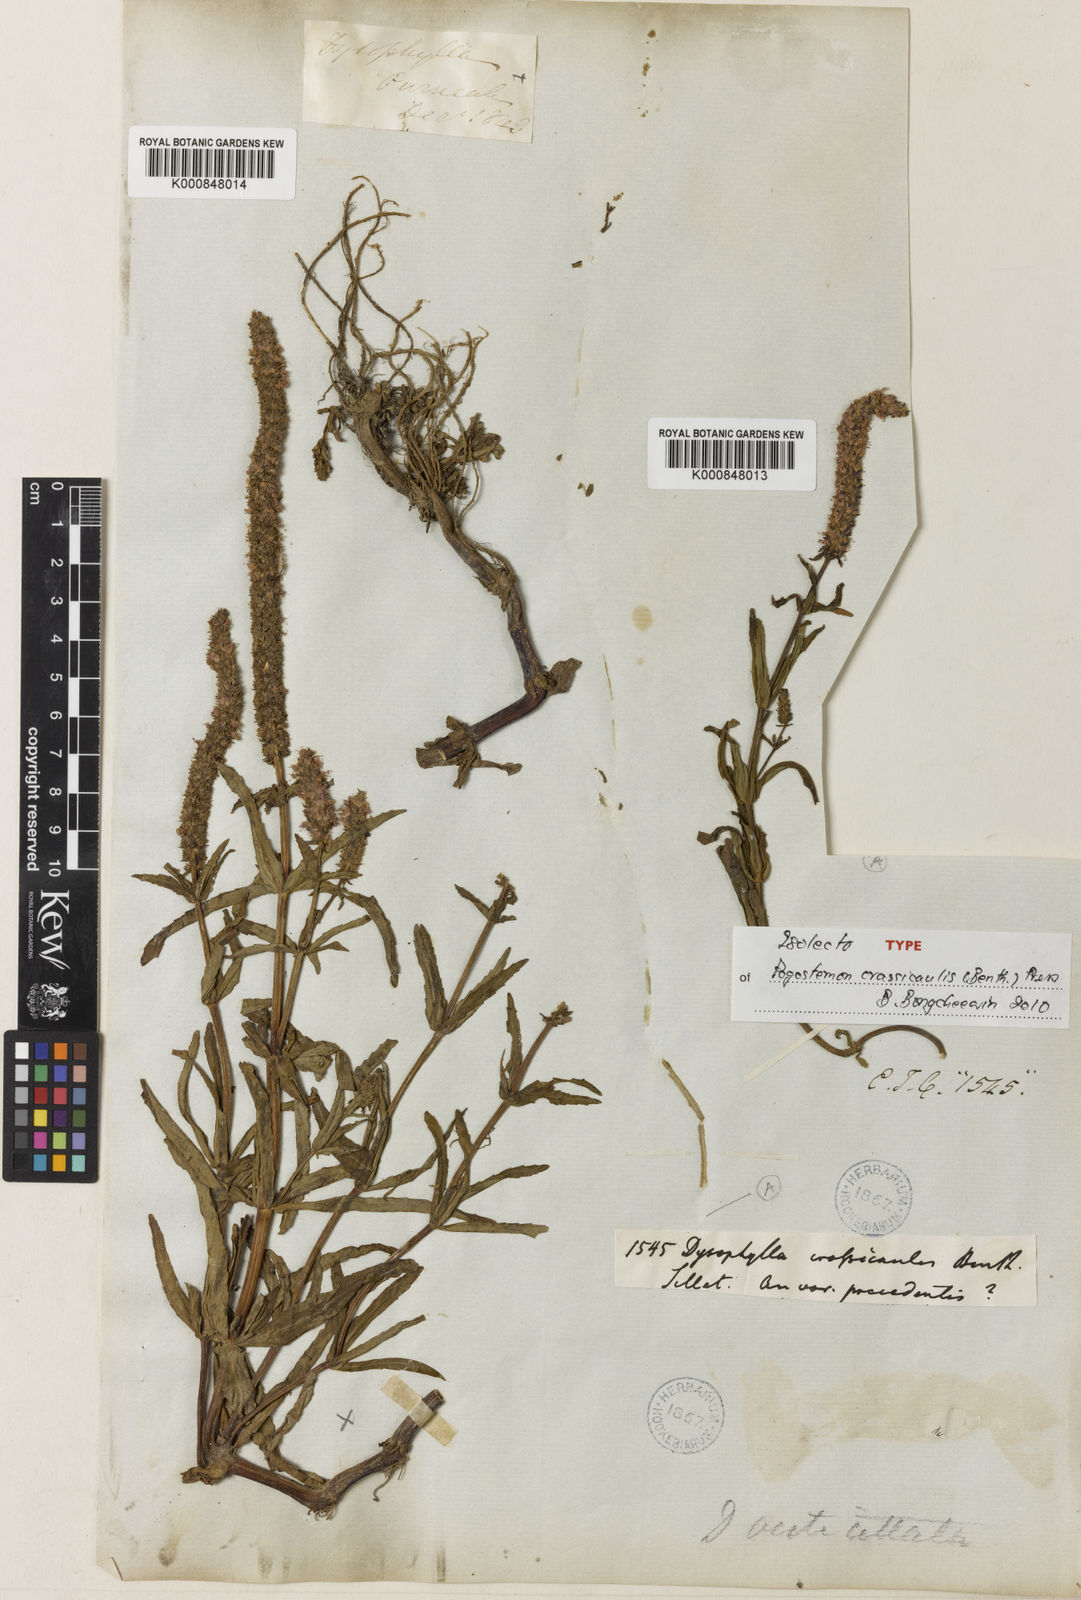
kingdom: Plantae
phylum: Tracheophyta
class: Magnoliopsida
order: Lamiales
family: Lamiaceae
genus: Pogostemon
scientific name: Pogostemon crassicaulis
